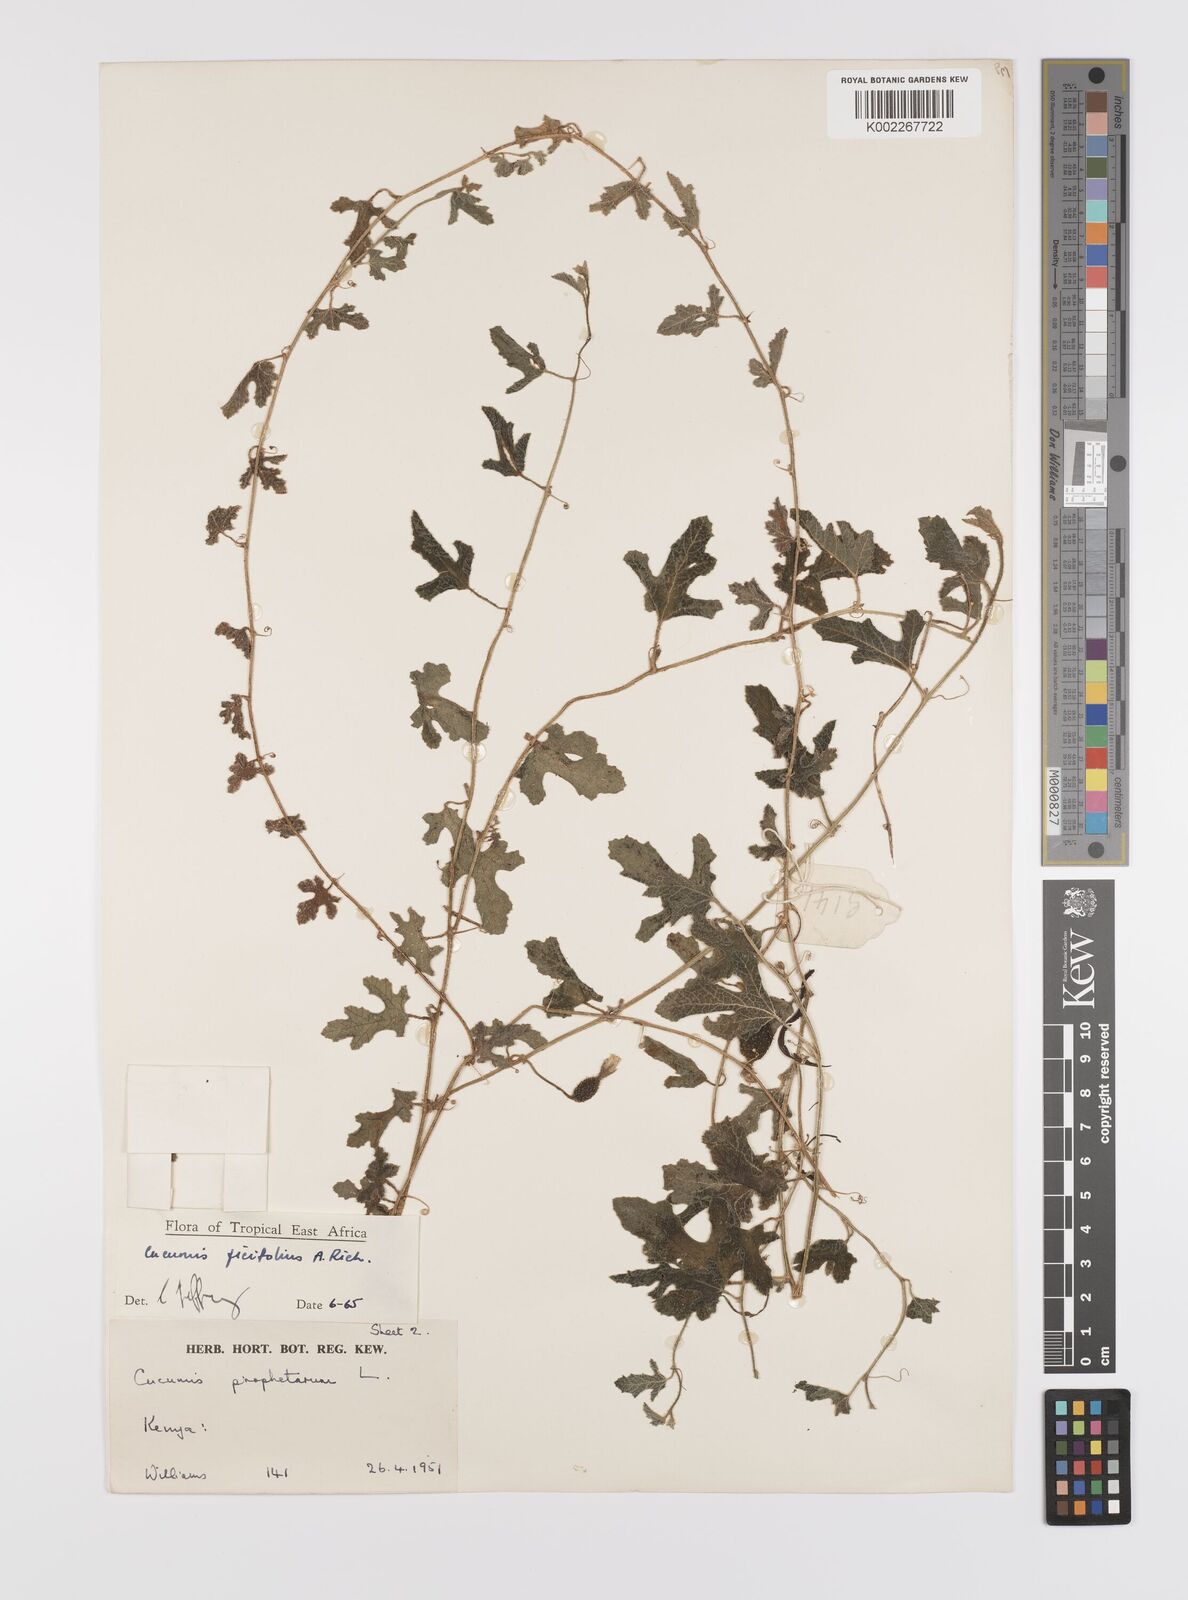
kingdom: Plantae
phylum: Tracheophyta
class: Magnoliopsida
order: Cucurbitales
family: Cucurbitaceae
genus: Cucumis
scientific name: Cucumis ficifolius
